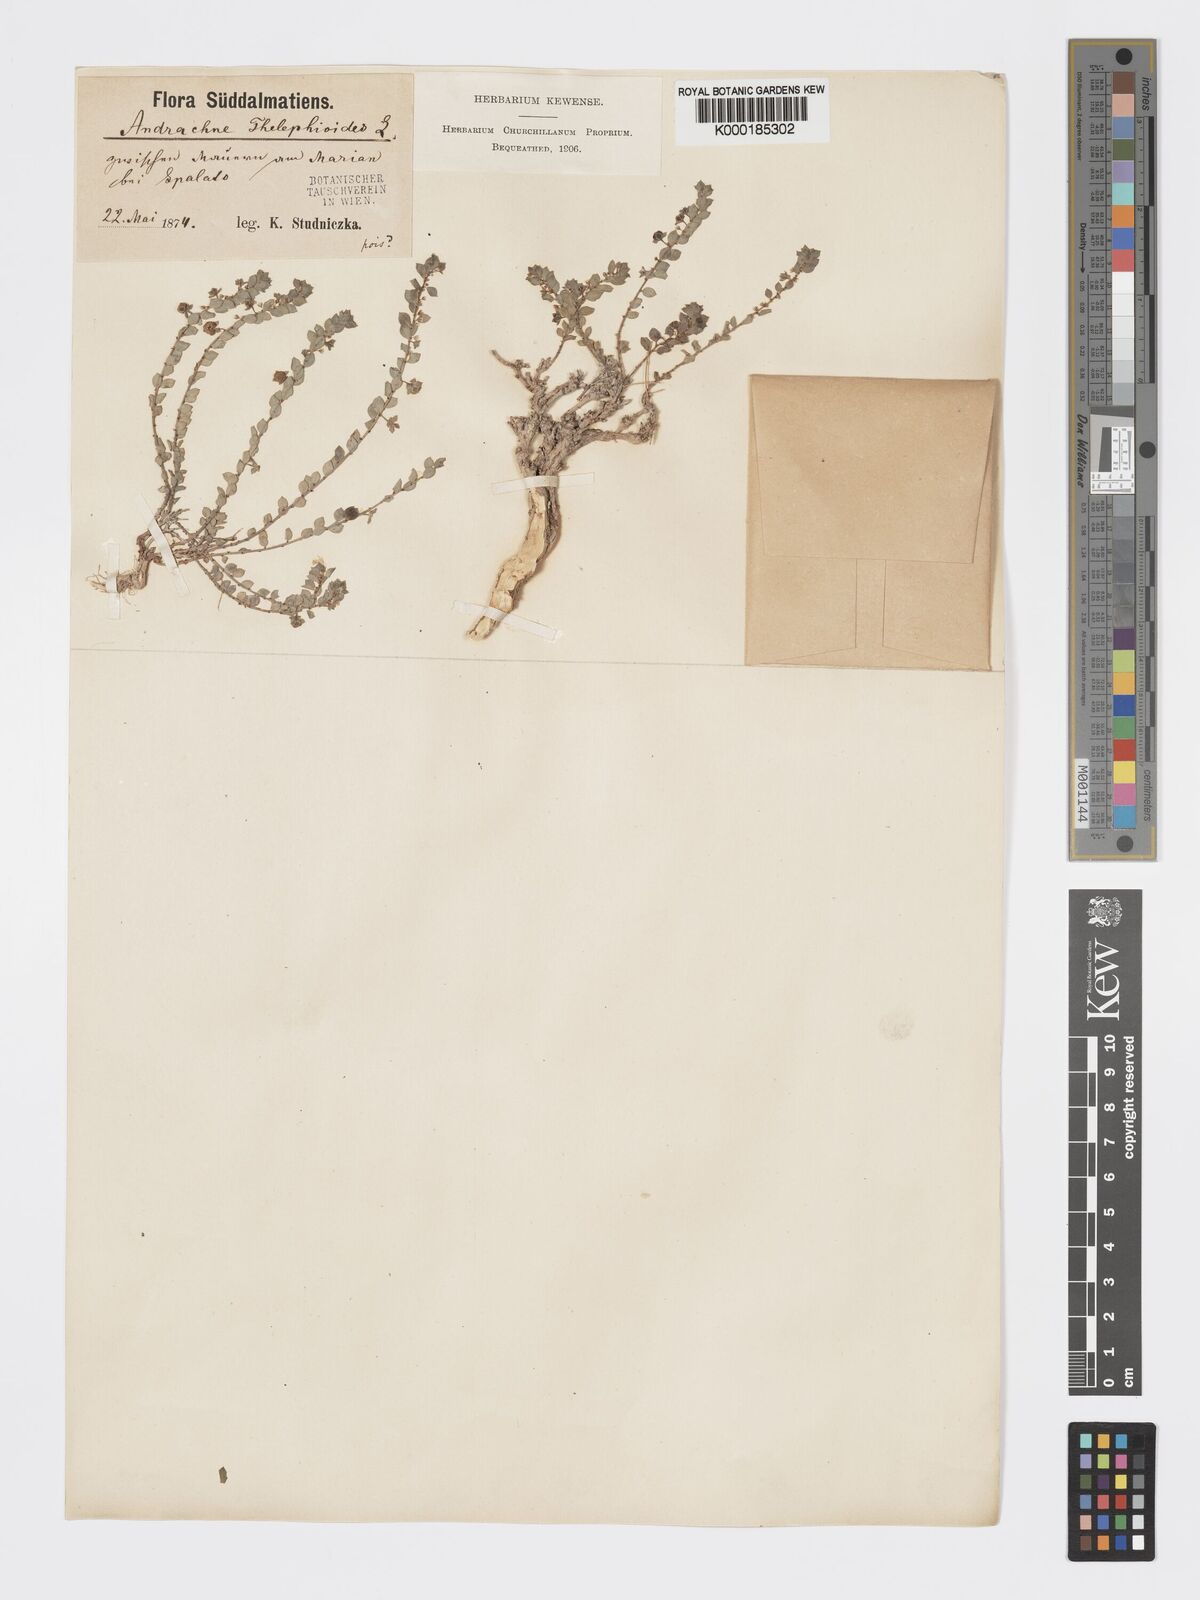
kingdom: Plantae
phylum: Tracheophyta
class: Magnoliopsida
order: Malpighiales
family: Phyllanthaceae
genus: Andrachne
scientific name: Andrachne telephioides
